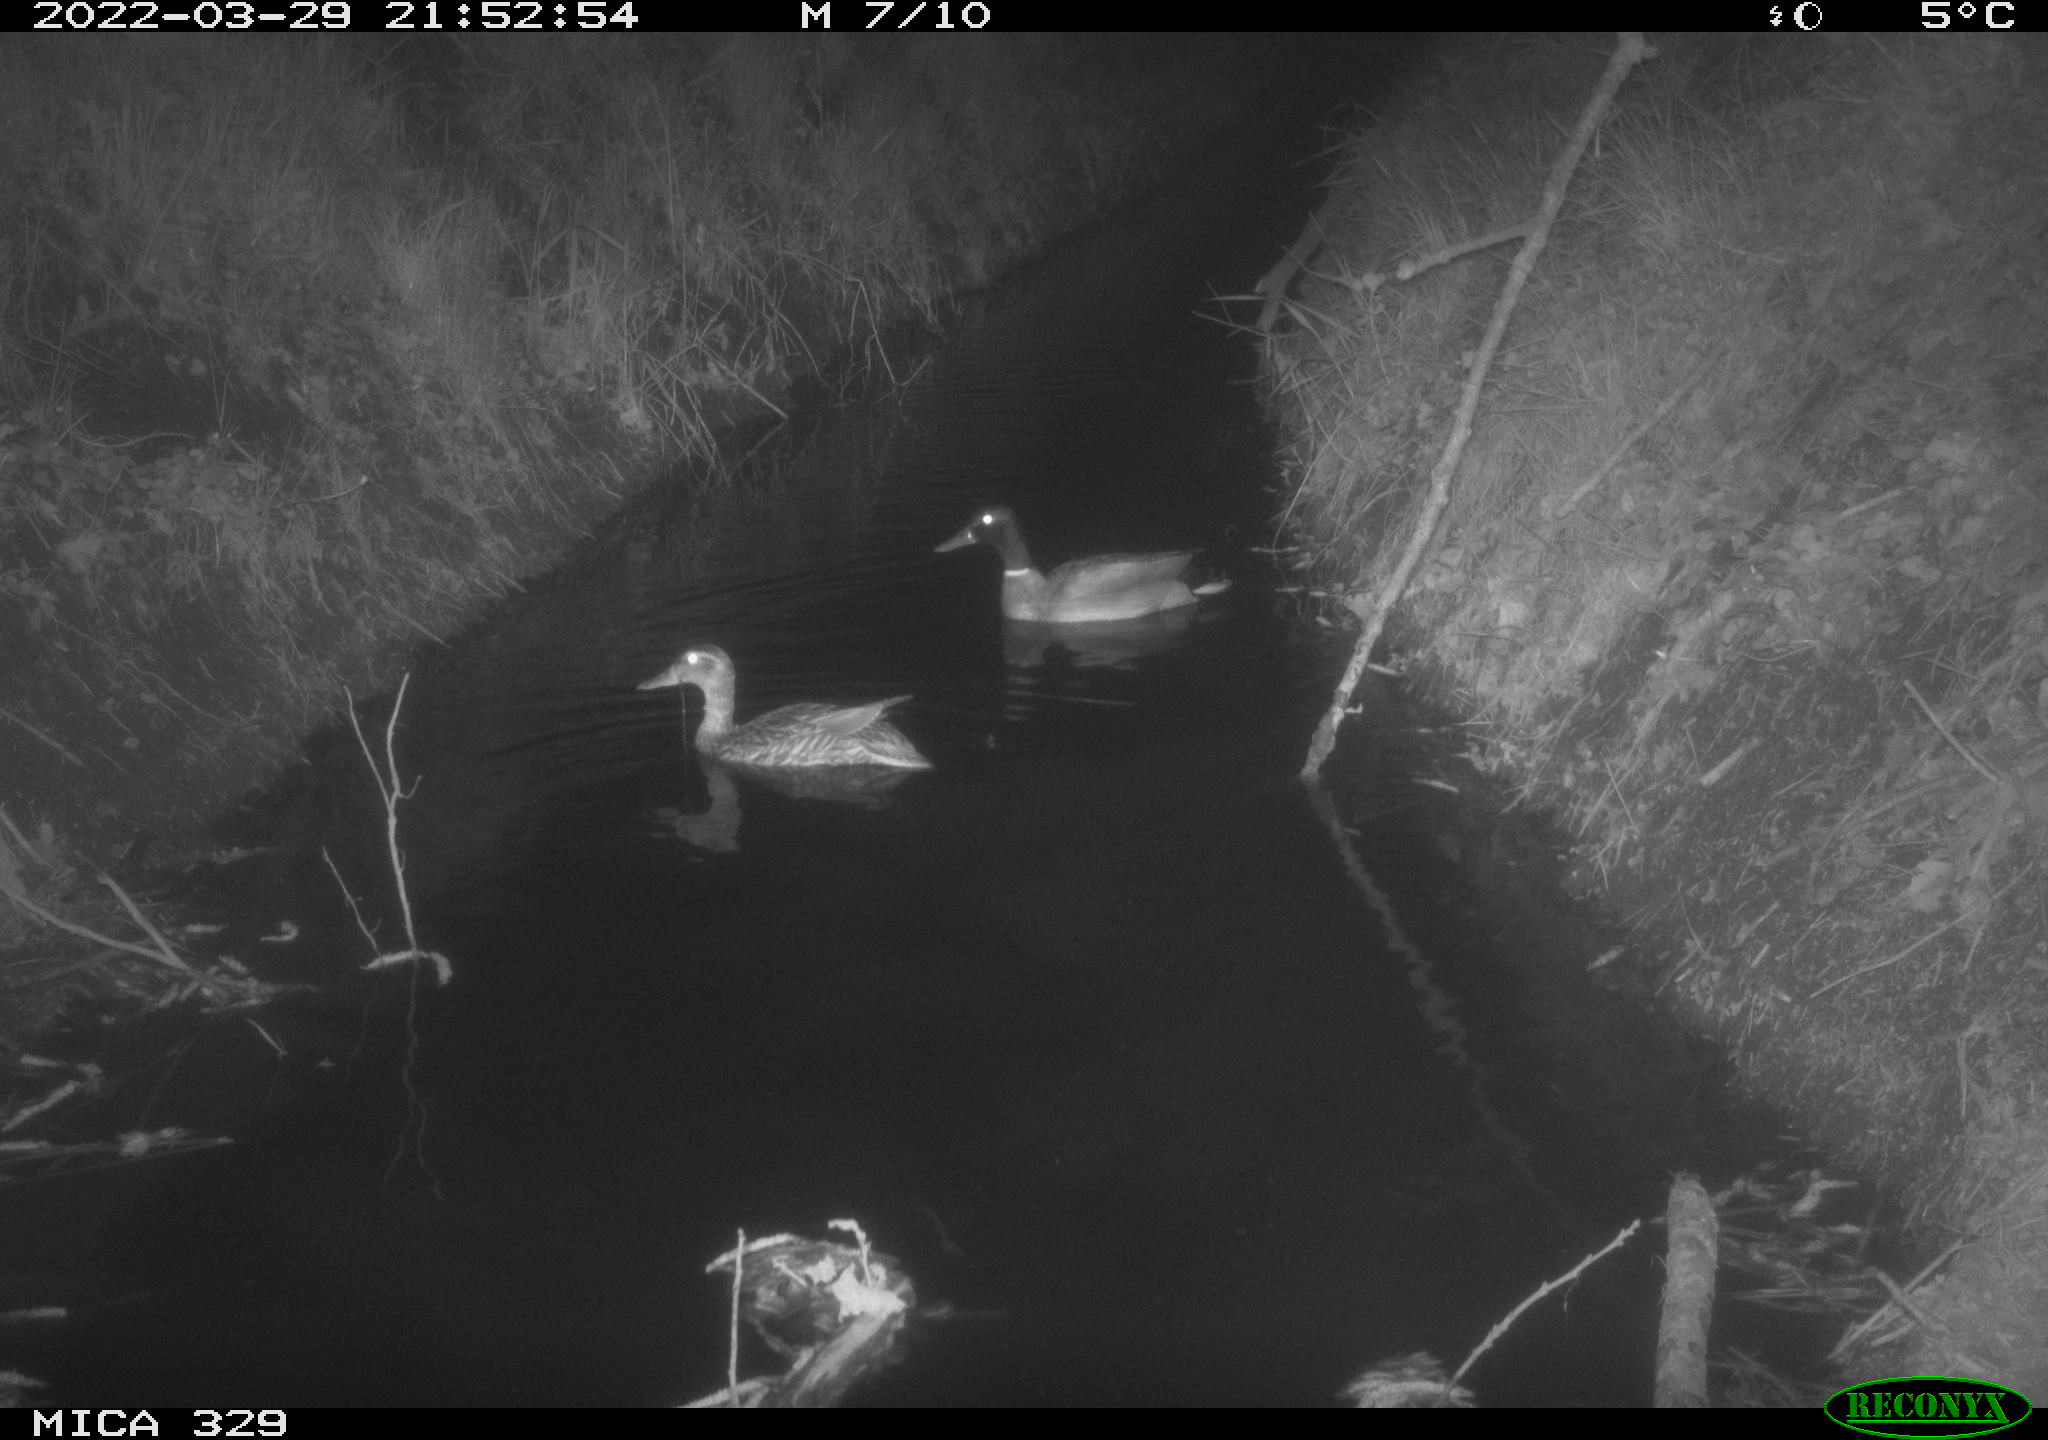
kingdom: Animalia
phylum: Chordata
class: Aves
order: Anseriformes
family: Anatidae
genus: Anas
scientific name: Anas platyrhynchos
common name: Mallard
